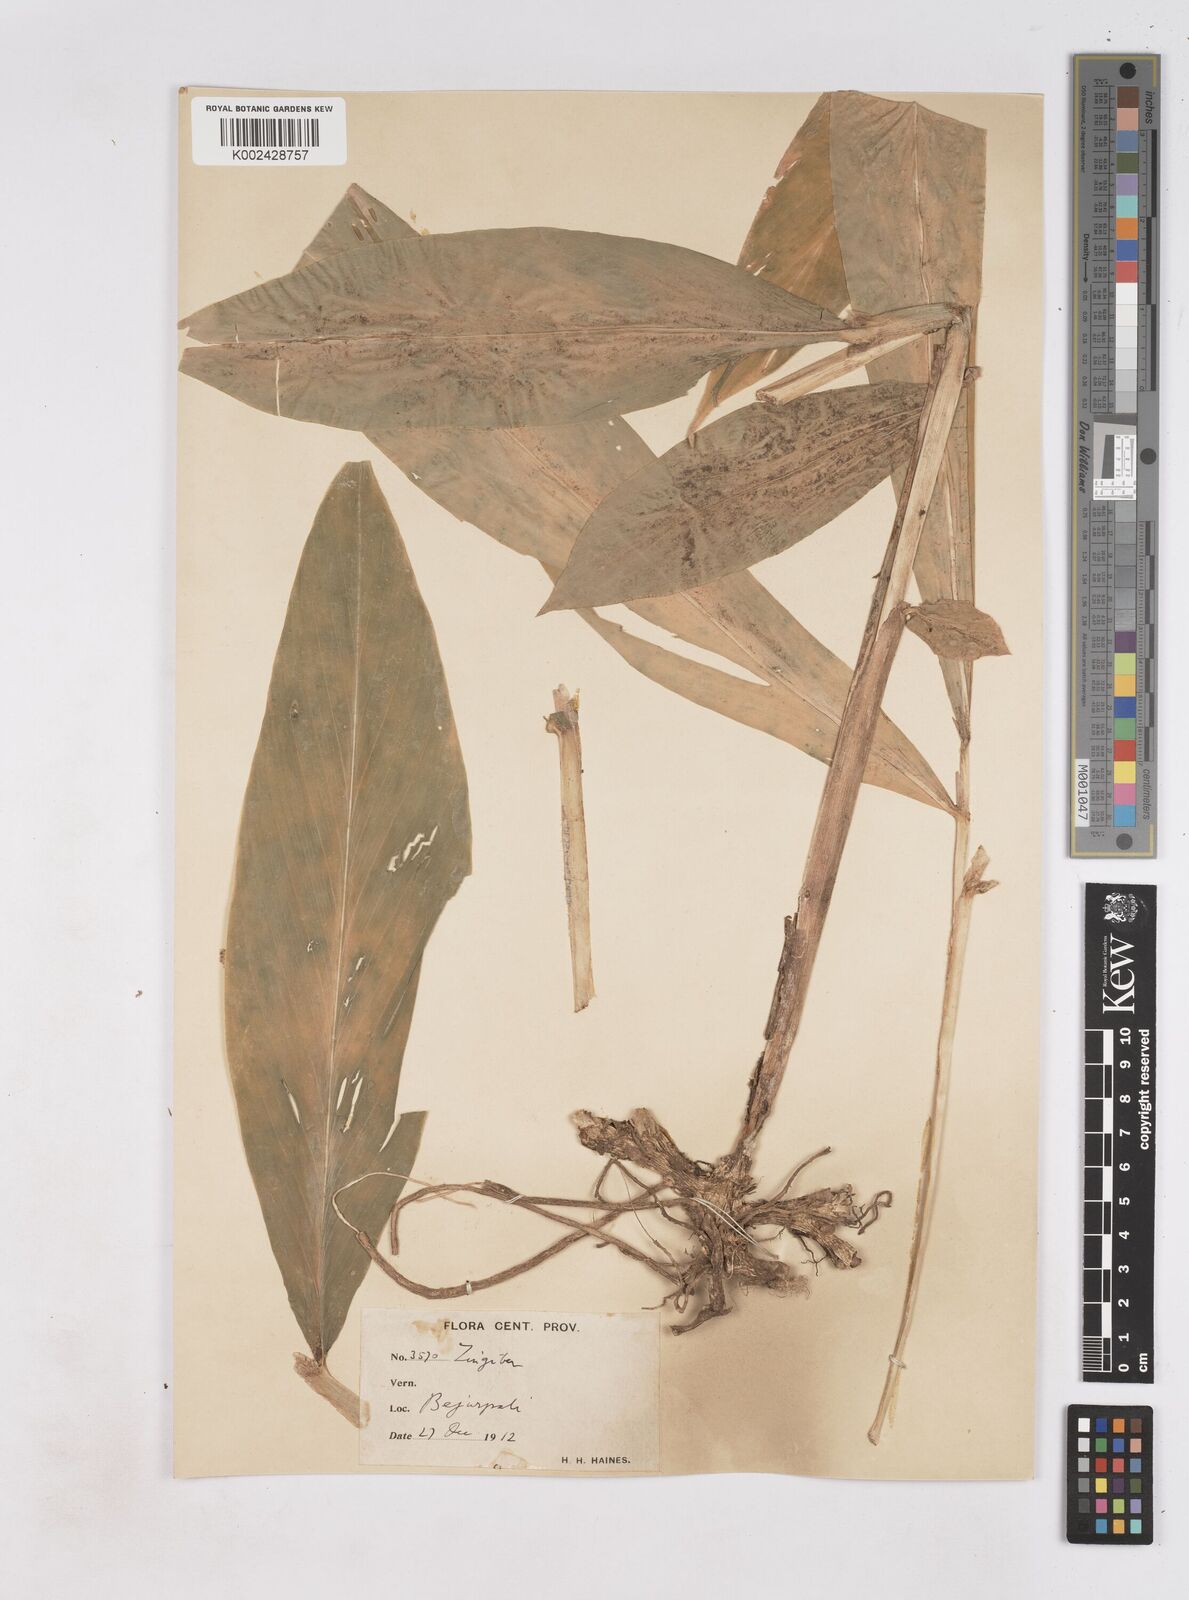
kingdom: Plantae
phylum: Tracheophyta
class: Liliopsida
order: Zingiberales
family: Zingiberaceae
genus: Zingiber
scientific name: Zingiber
